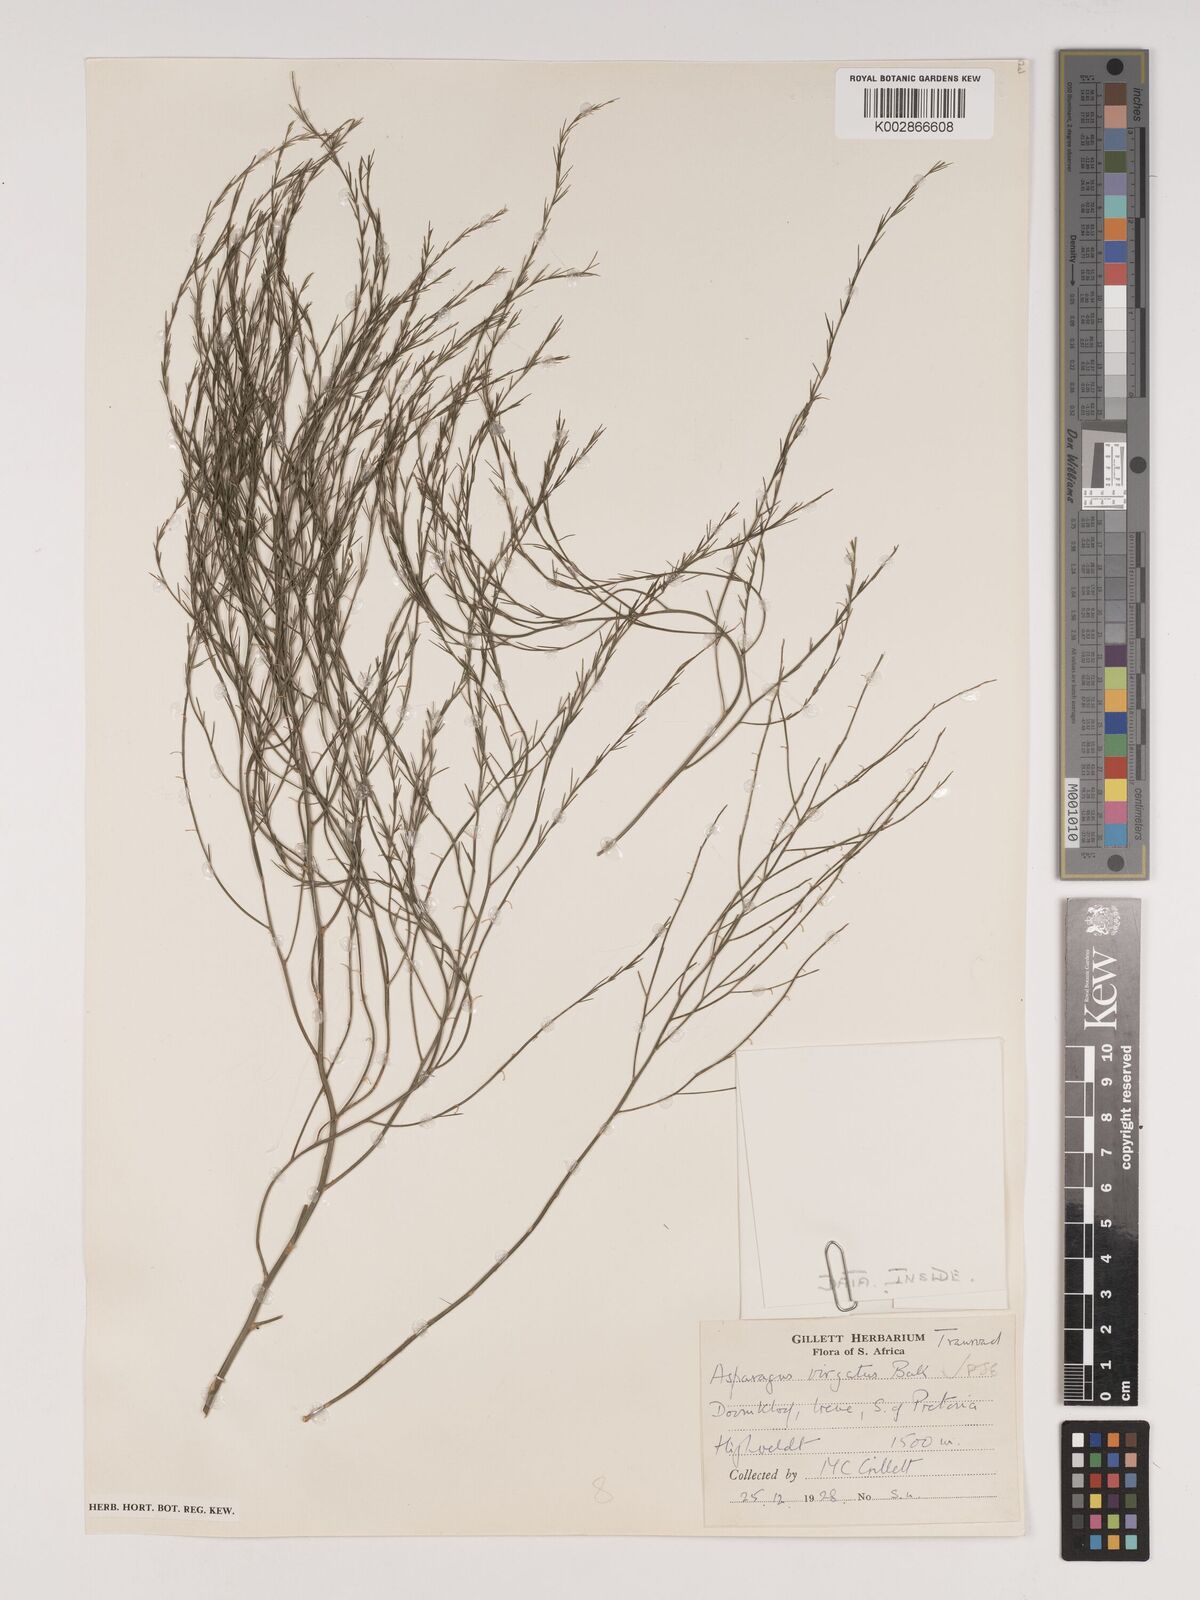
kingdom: Plantae
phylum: Tracheophyta
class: Liliopsida
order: Asparagales
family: Asparagaceae
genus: Asparagus
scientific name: Asparagus virgatus
